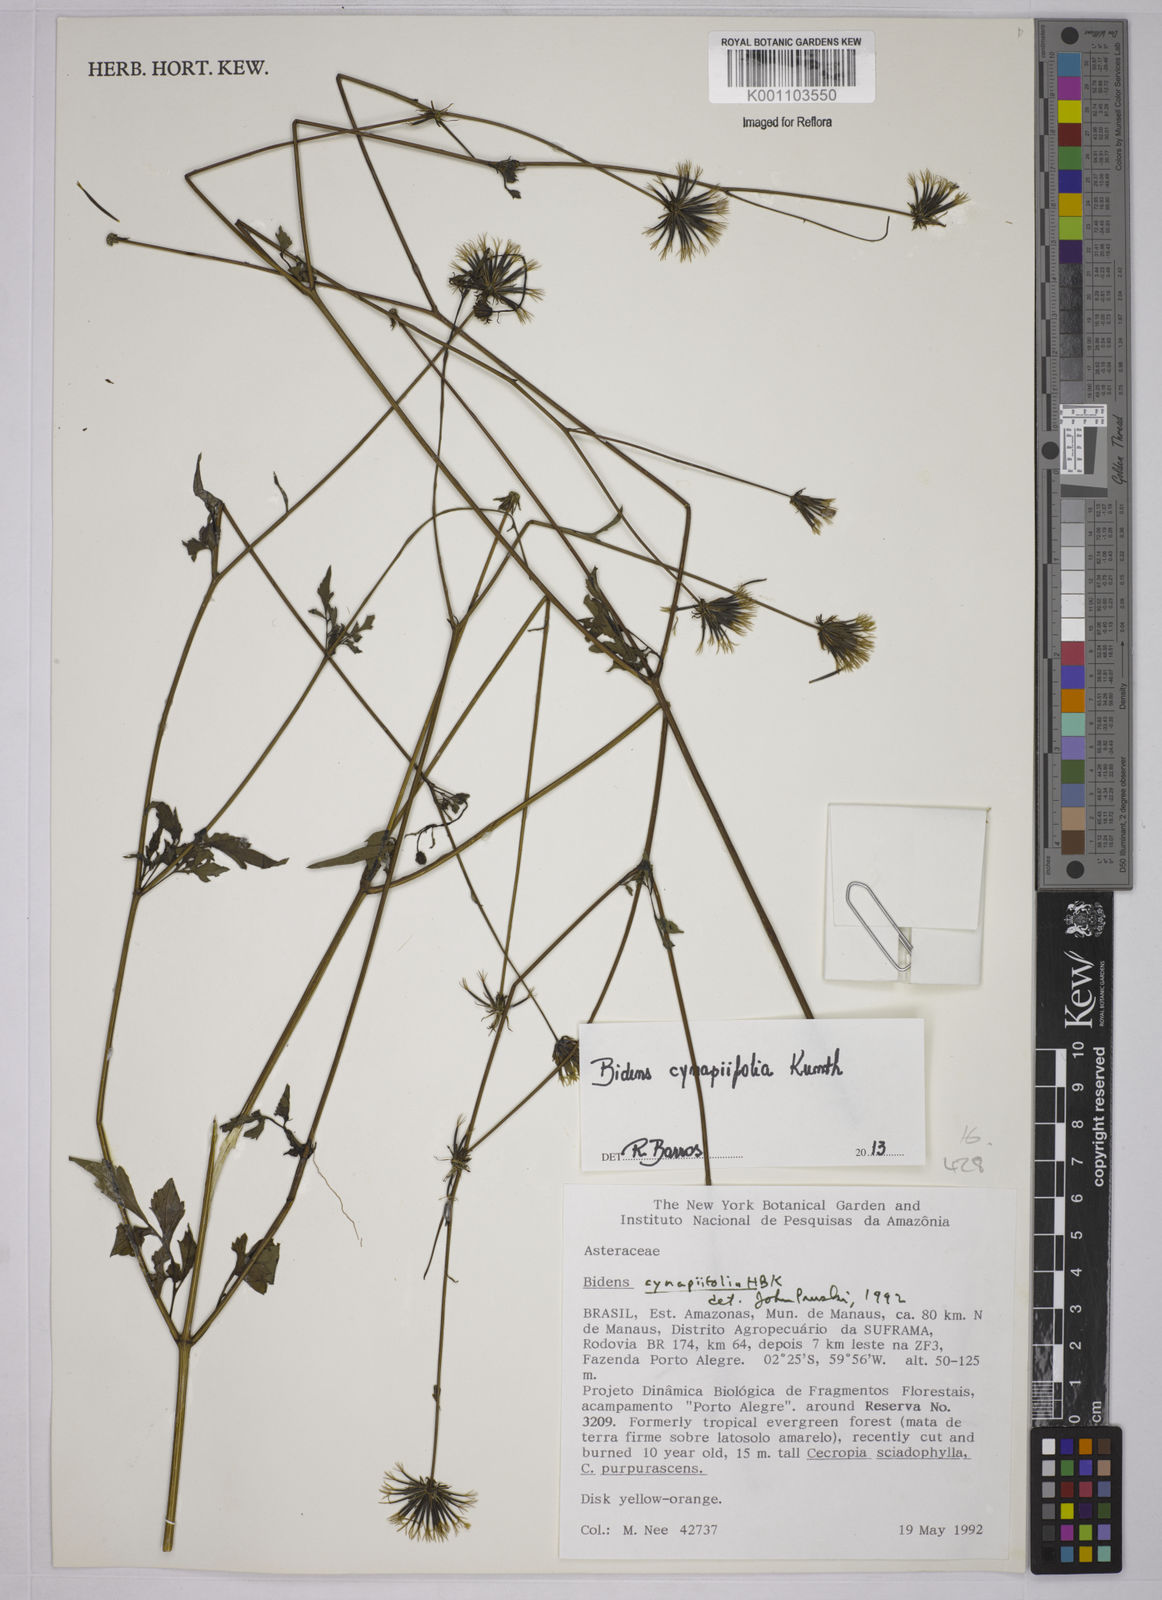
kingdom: Plantae
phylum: Tracheophyta
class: Magnoliopsida
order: Asterales
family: Asteraceae
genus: Bidens
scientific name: Bidens cynapiifolia
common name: Beggar's tick
